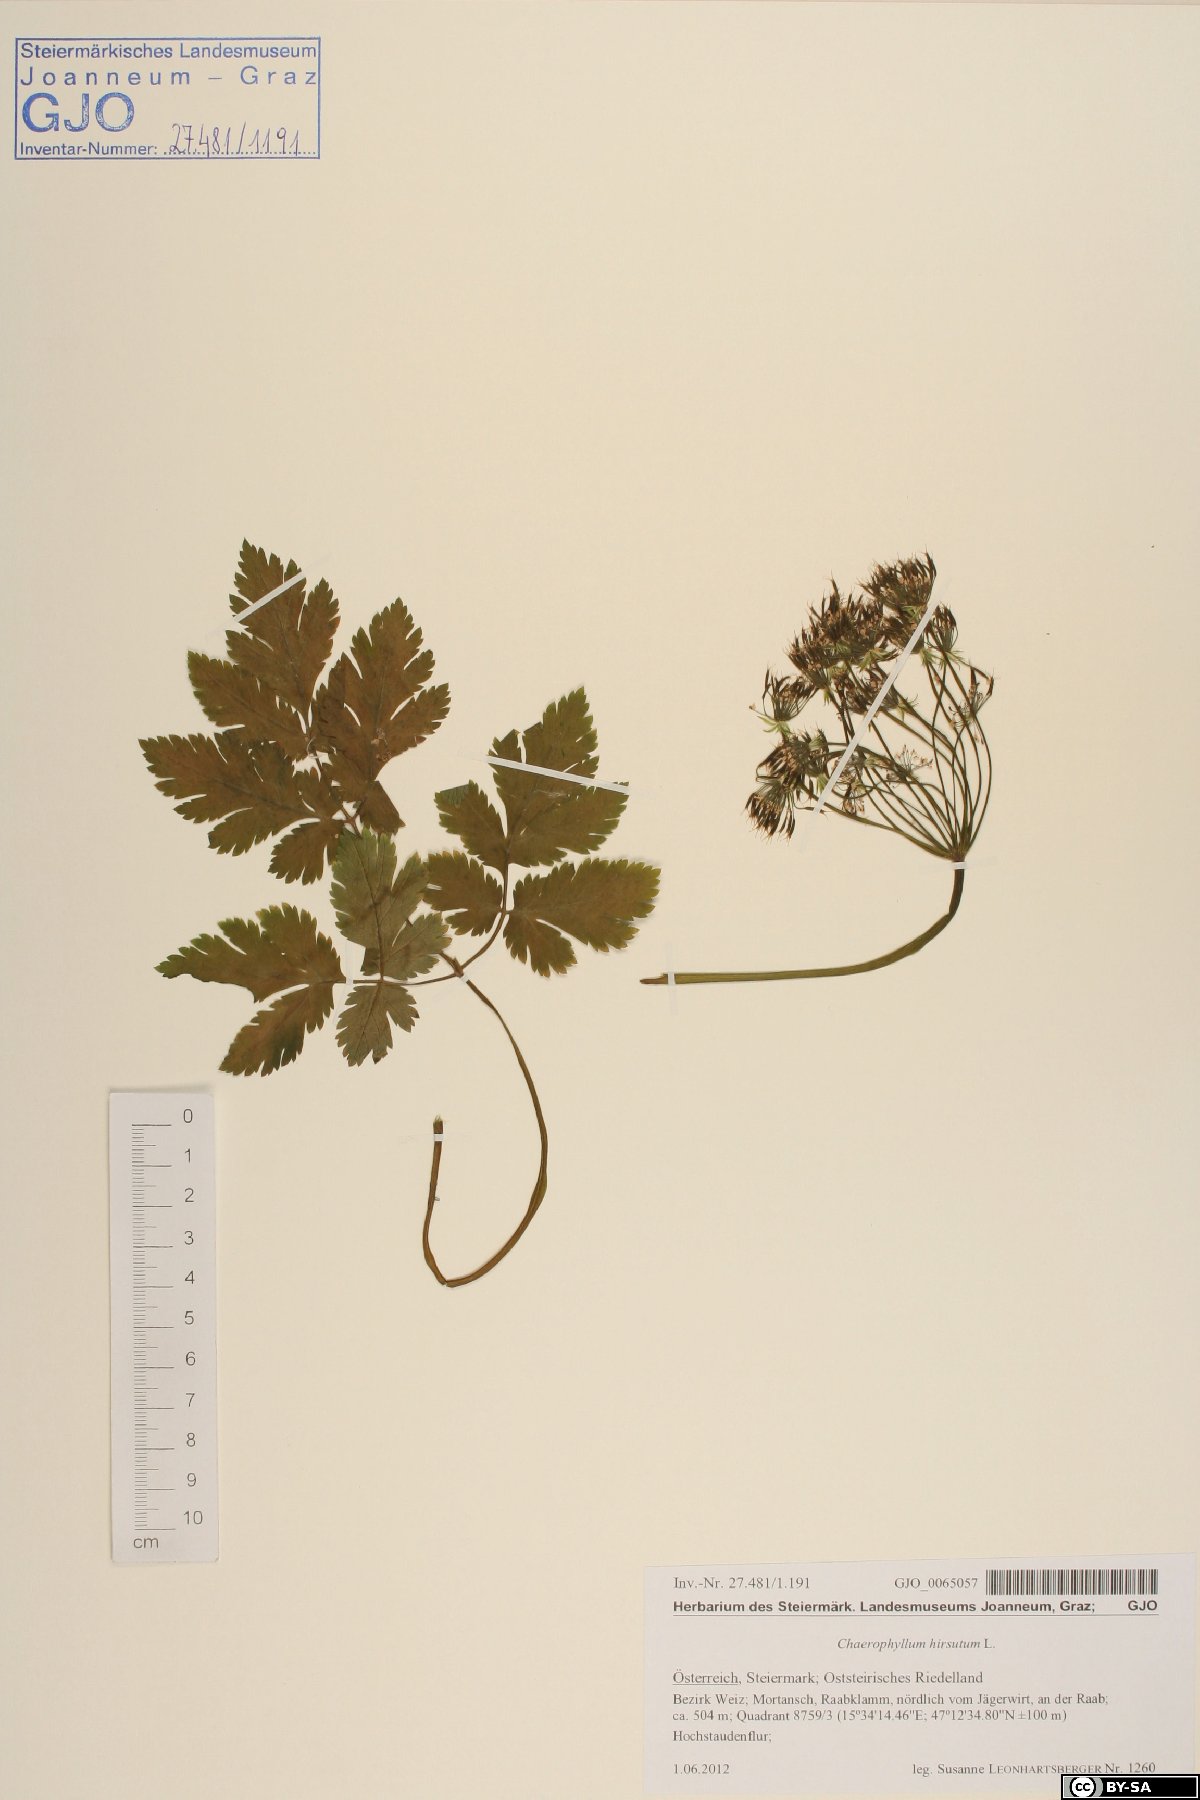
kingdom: Plantae
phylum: Tracheophyta
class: Magnoliopsida
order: Apiales
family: Apiaceae
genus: Chaerophyllum
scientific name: Chaerophyllum hirsutum
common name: Hairy chervil
